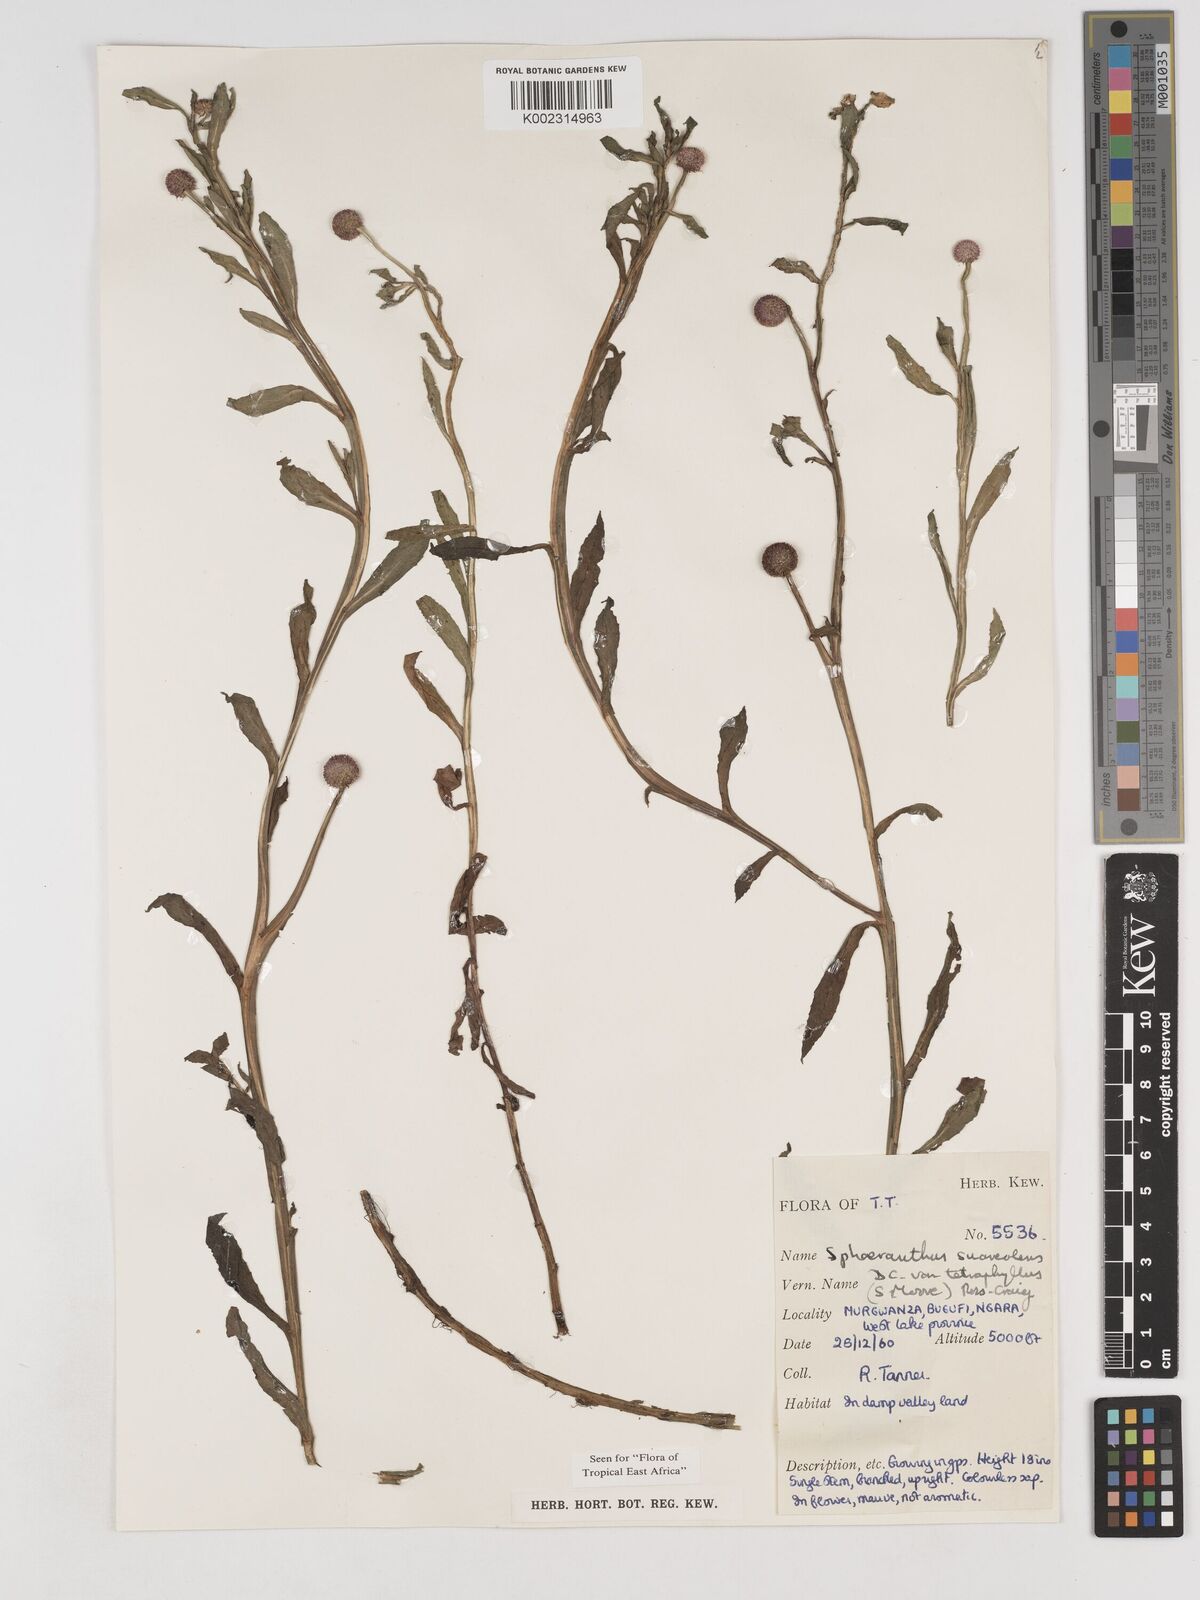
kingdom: Plantae
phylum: Tracheophyta
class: Magnoliopsida
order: Asterales
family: Asteraceae
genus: Sphaeranthus
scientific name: Sphaeranthus suaveolens
